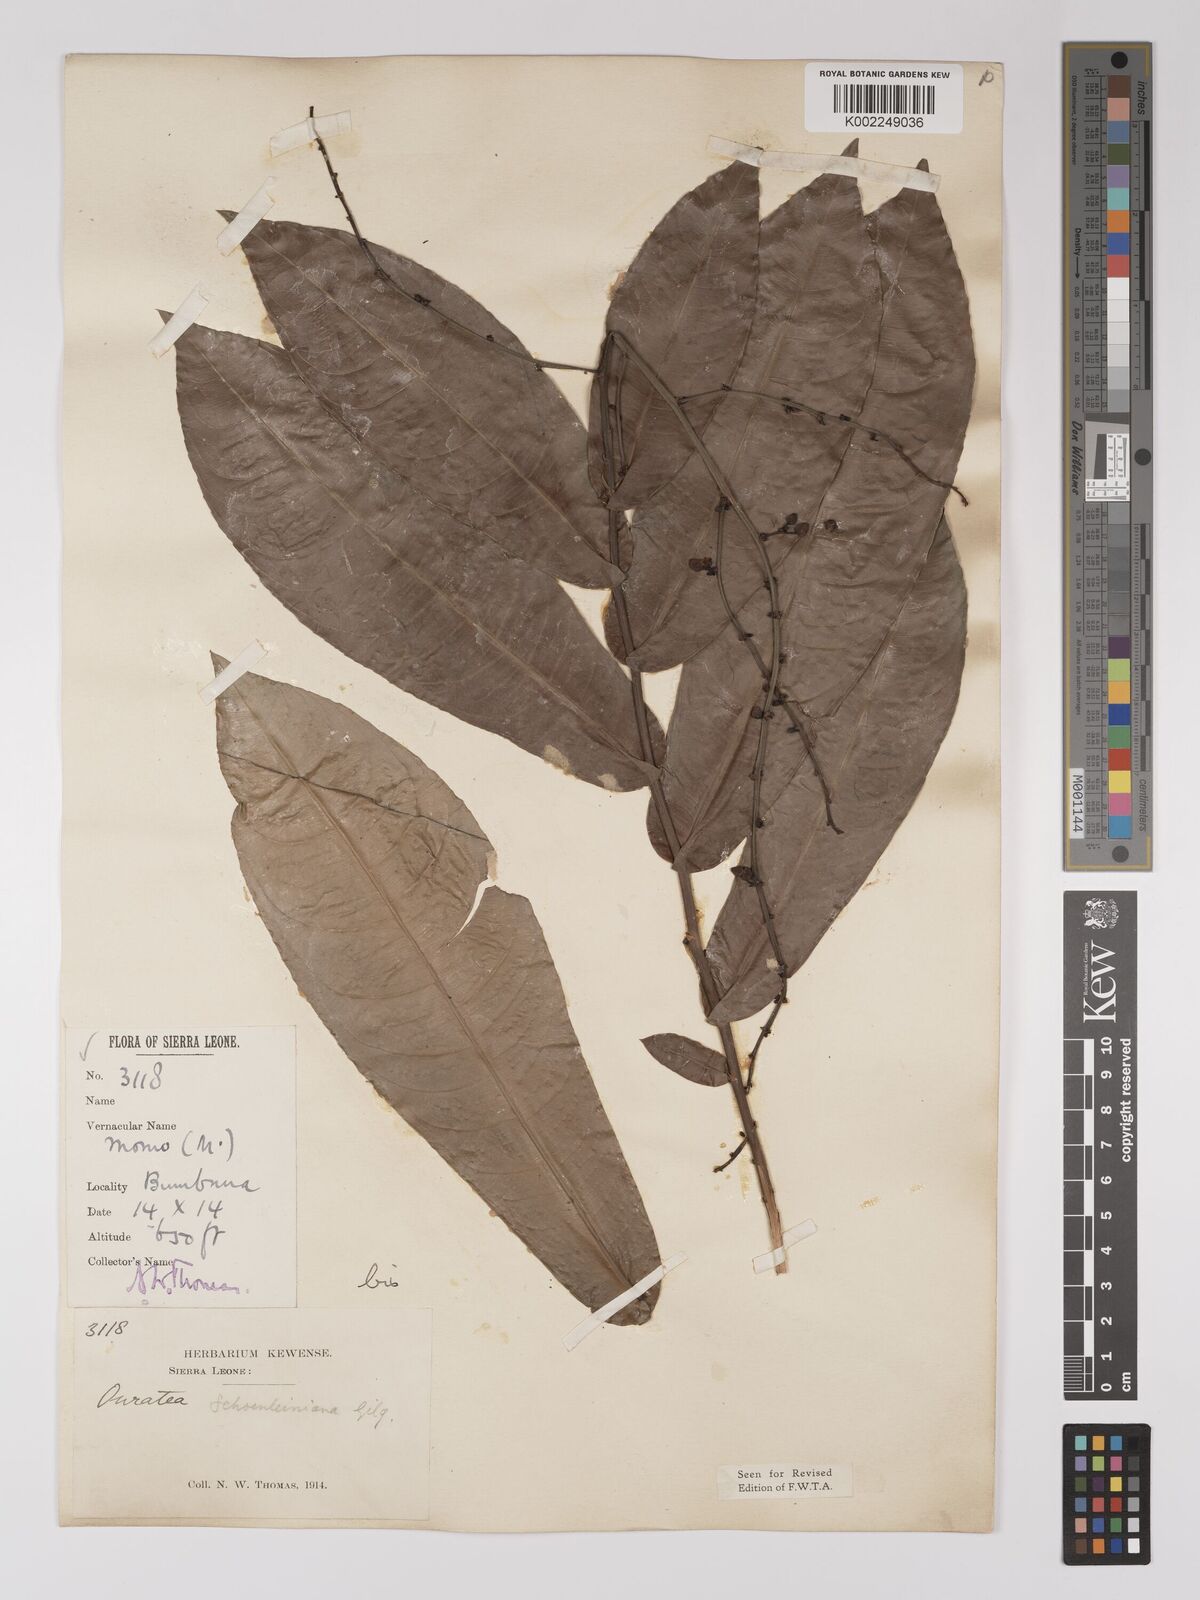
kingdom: Plantae
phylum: Tracheophyta
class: Magnoliopsida
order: Malpighiales
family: Ochnaceae
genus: Campylospermum
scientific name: Campylospermum schoenleinianum
